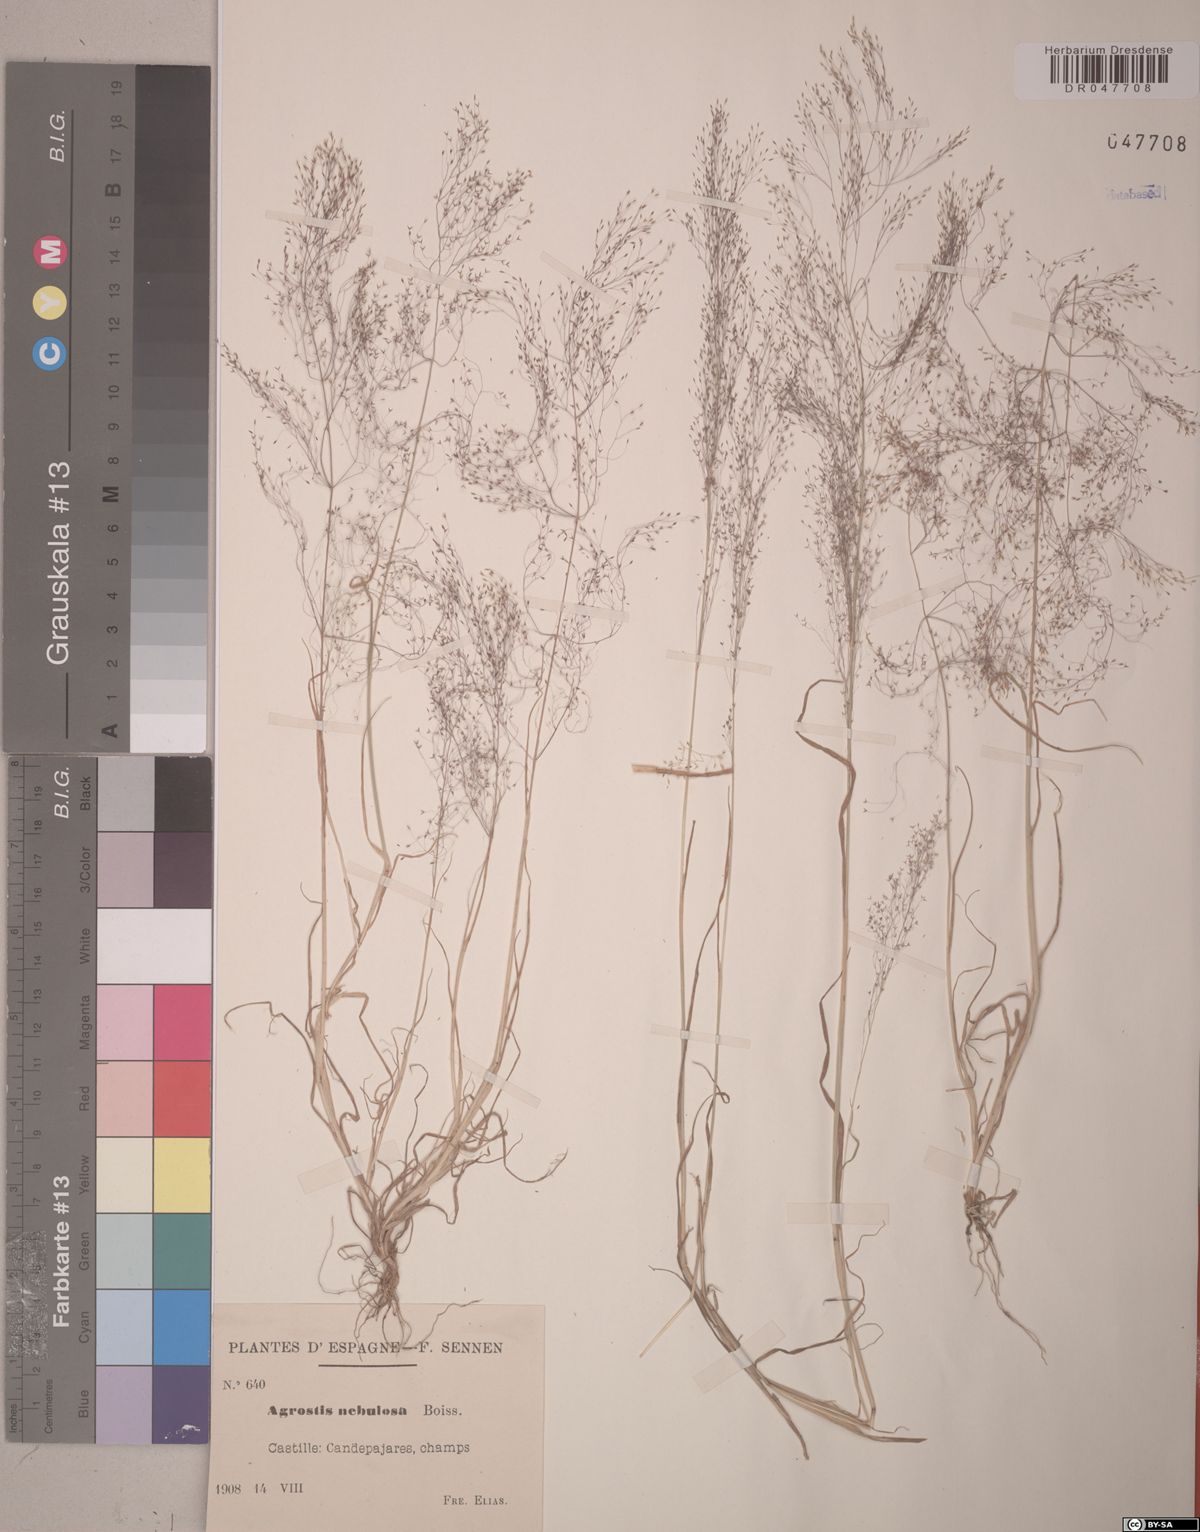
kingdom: Plantae
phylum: Tracheophyta
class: Liliopsida
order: Poales
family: Poaceae
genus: Agrostis
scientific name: Agrostis nebulosa
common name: Cloud grass
